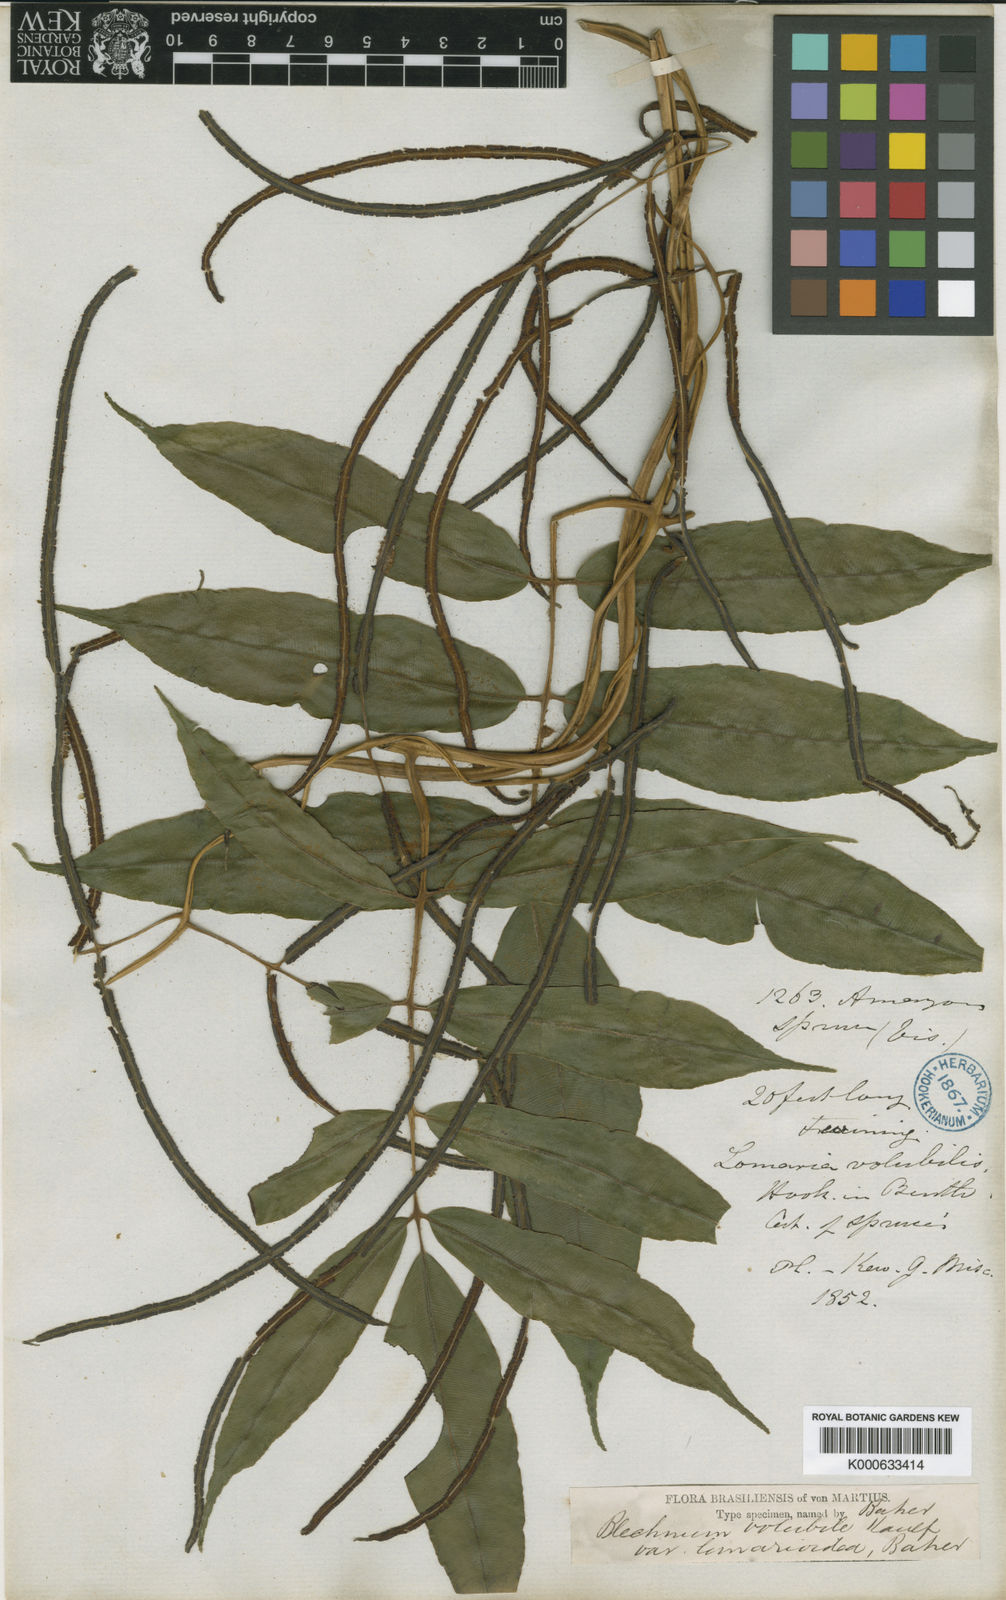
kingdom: Plantae
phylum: Tracheophyta
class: Polypodiopsida
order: Polypodiales
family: Blechnaceae
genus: Salpichlaena
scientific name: Salpichlaena volubilis
